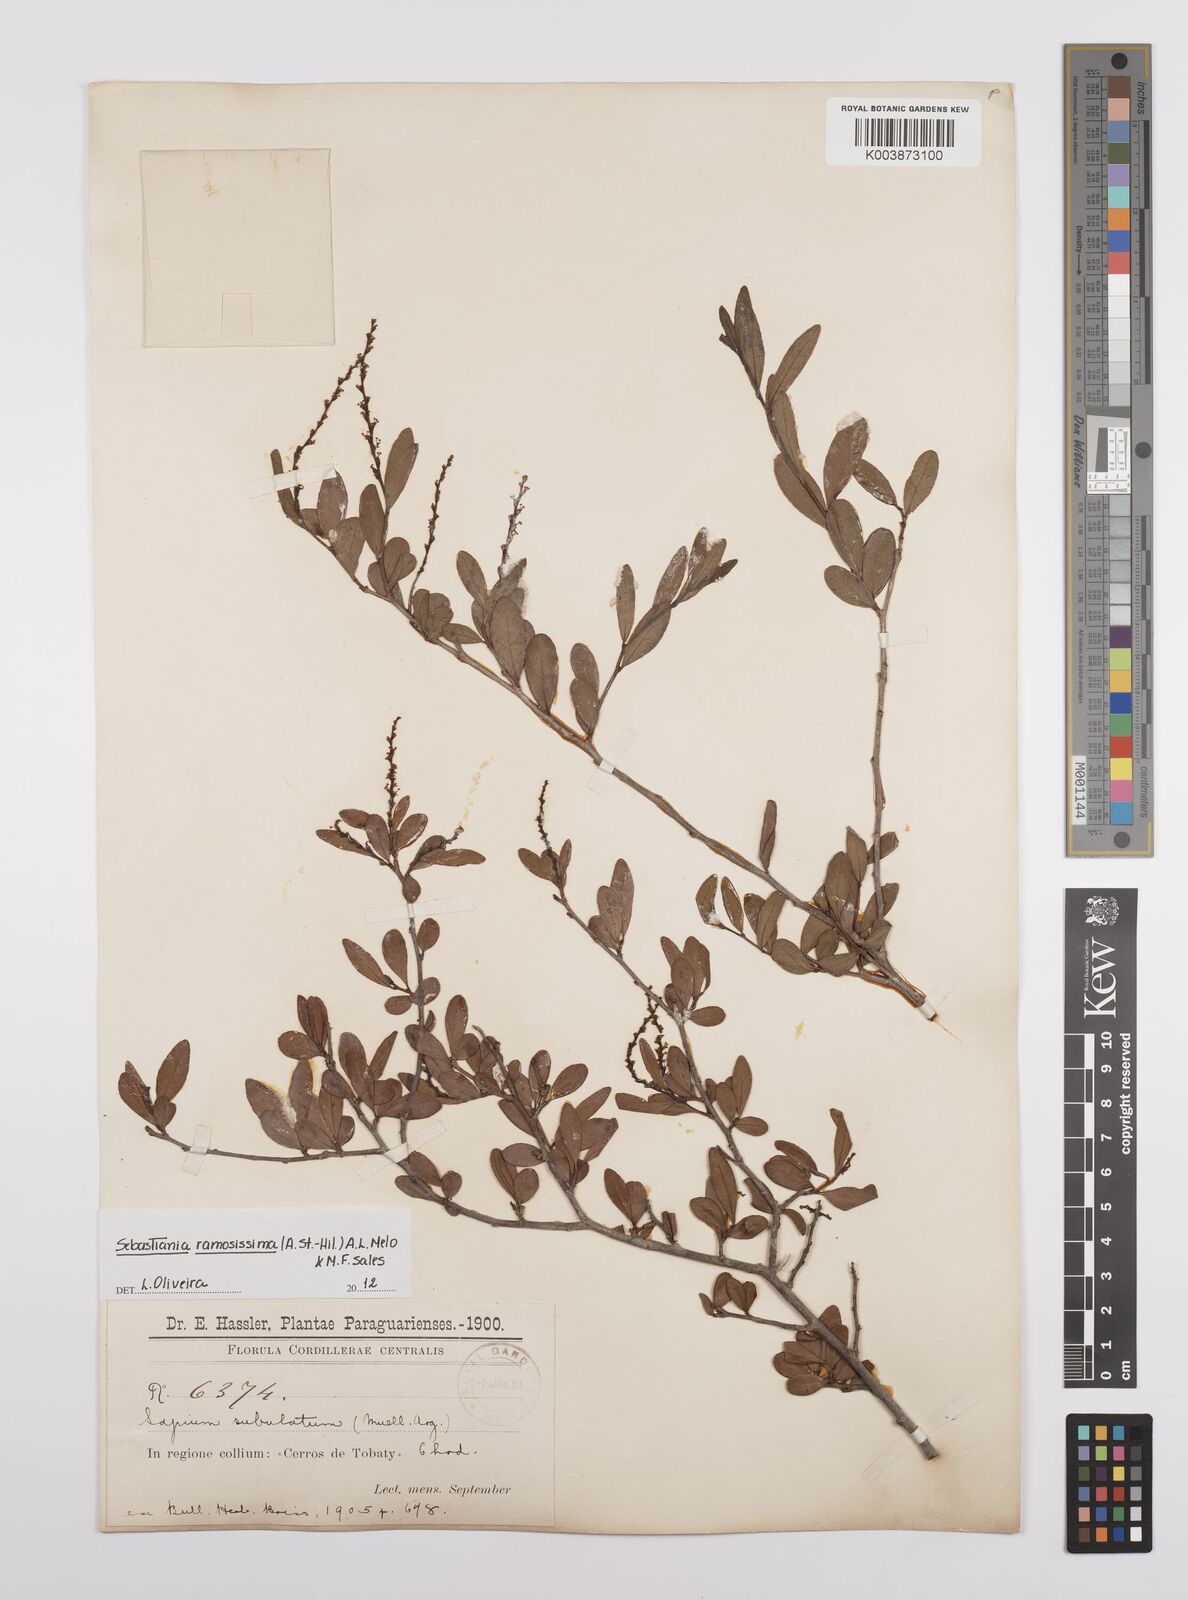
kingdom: Plantae
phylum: Tracheophyta
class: Magnoliopsida
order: Malpighiales
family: Euphorbiaceae
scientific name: Euphorbiaceae
